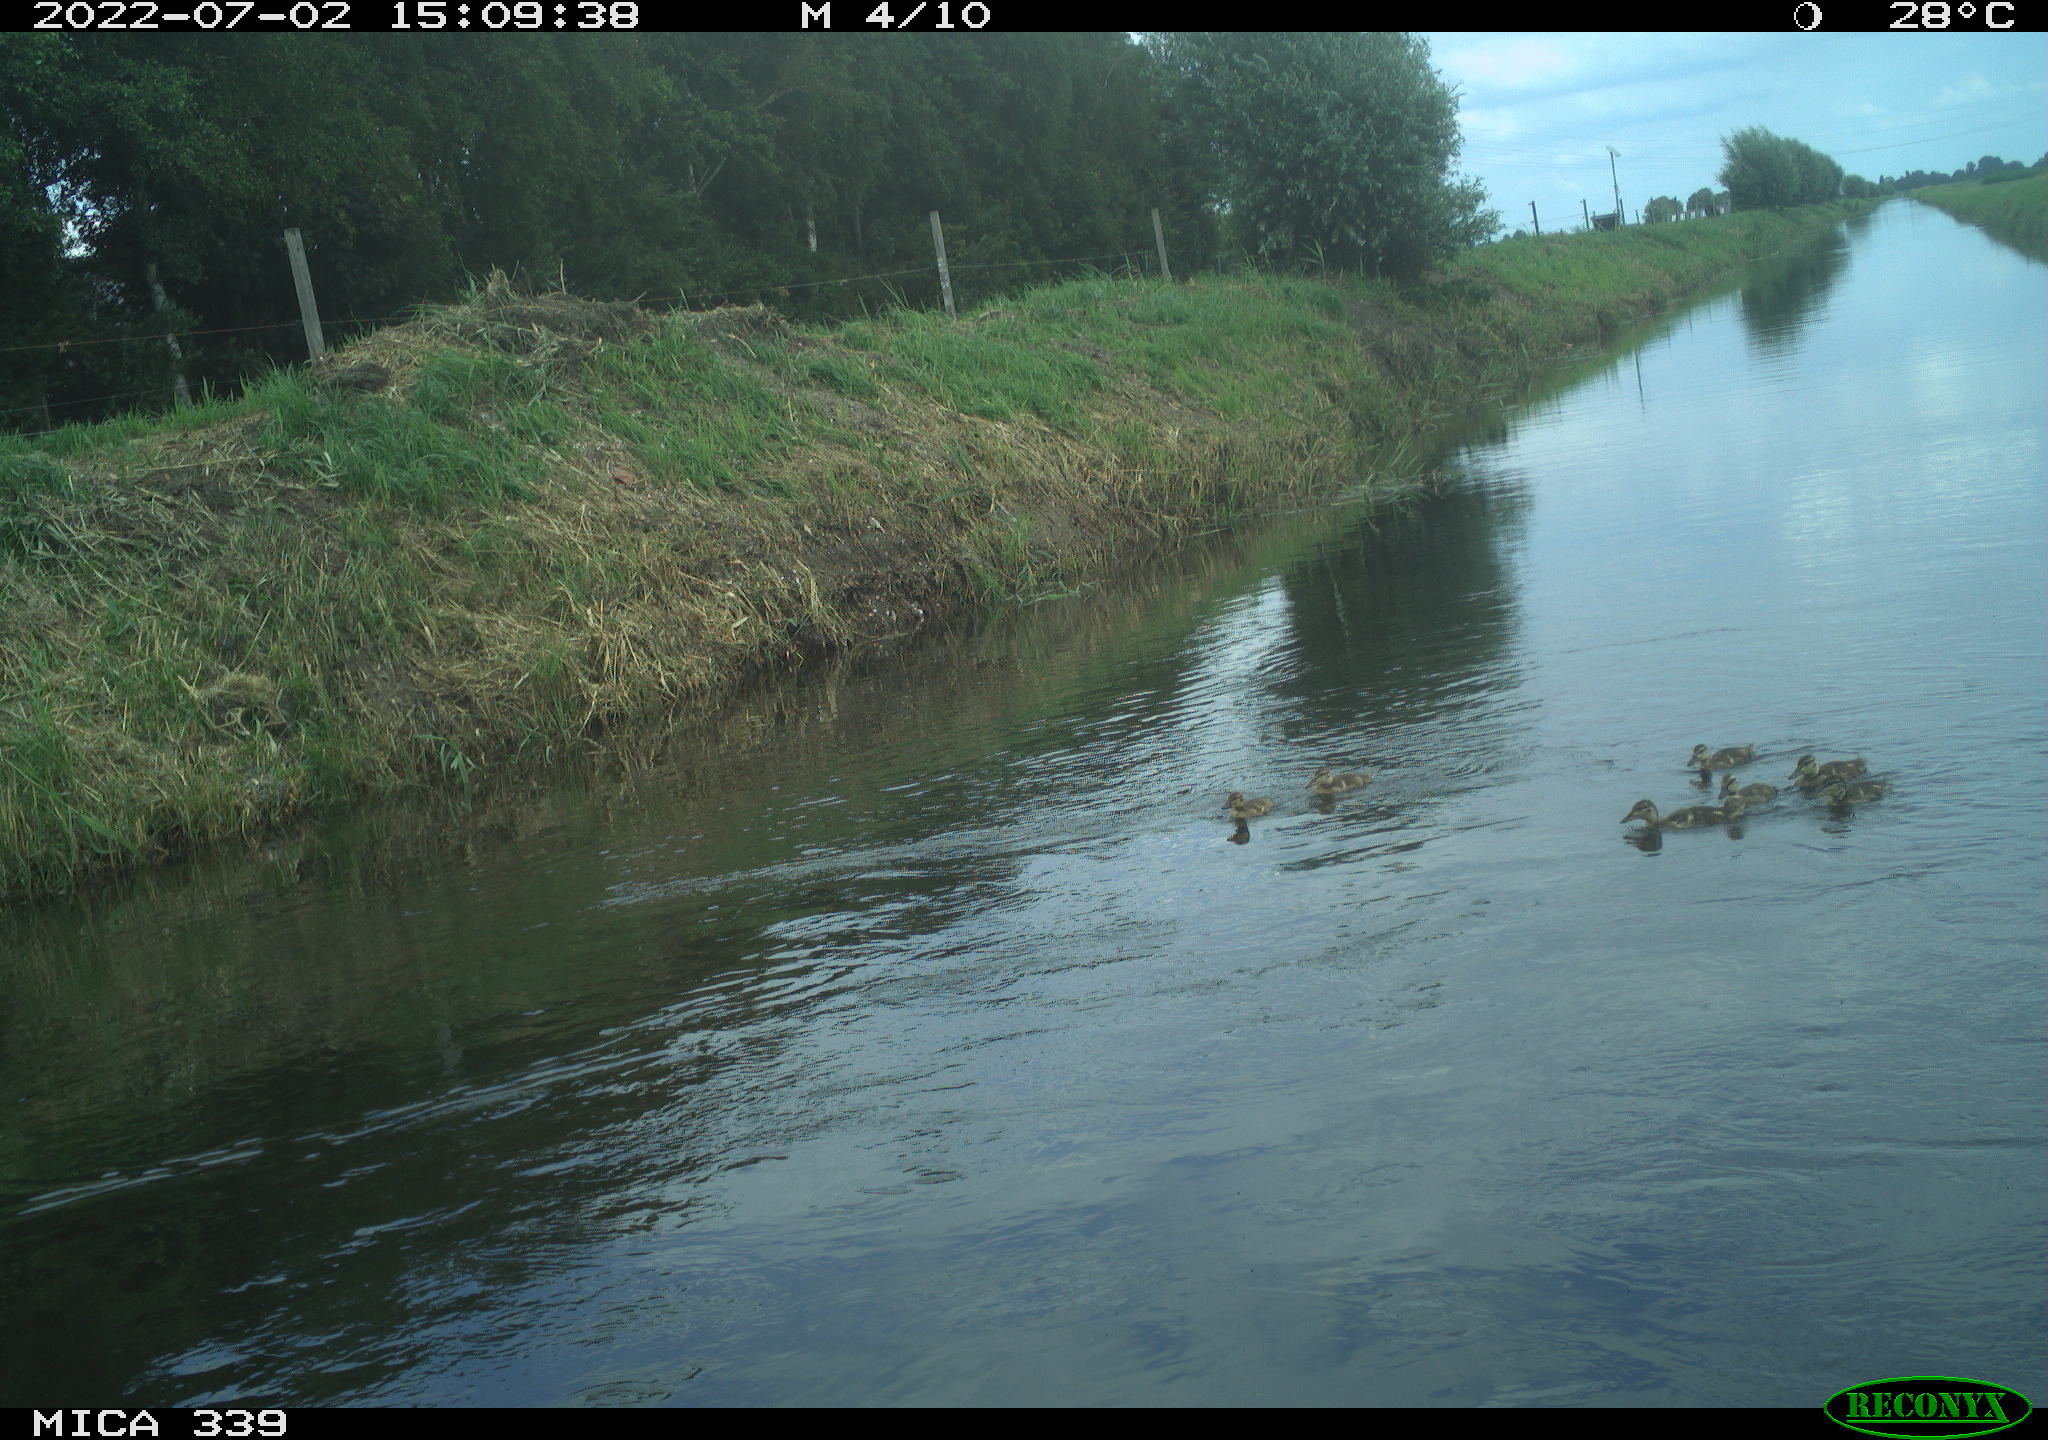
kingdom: Animalia
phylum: Chordata
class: Aves
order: Anseriformes
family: Anatidae
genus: Anas
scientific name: Anas platyrhynchos
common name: Mallard
